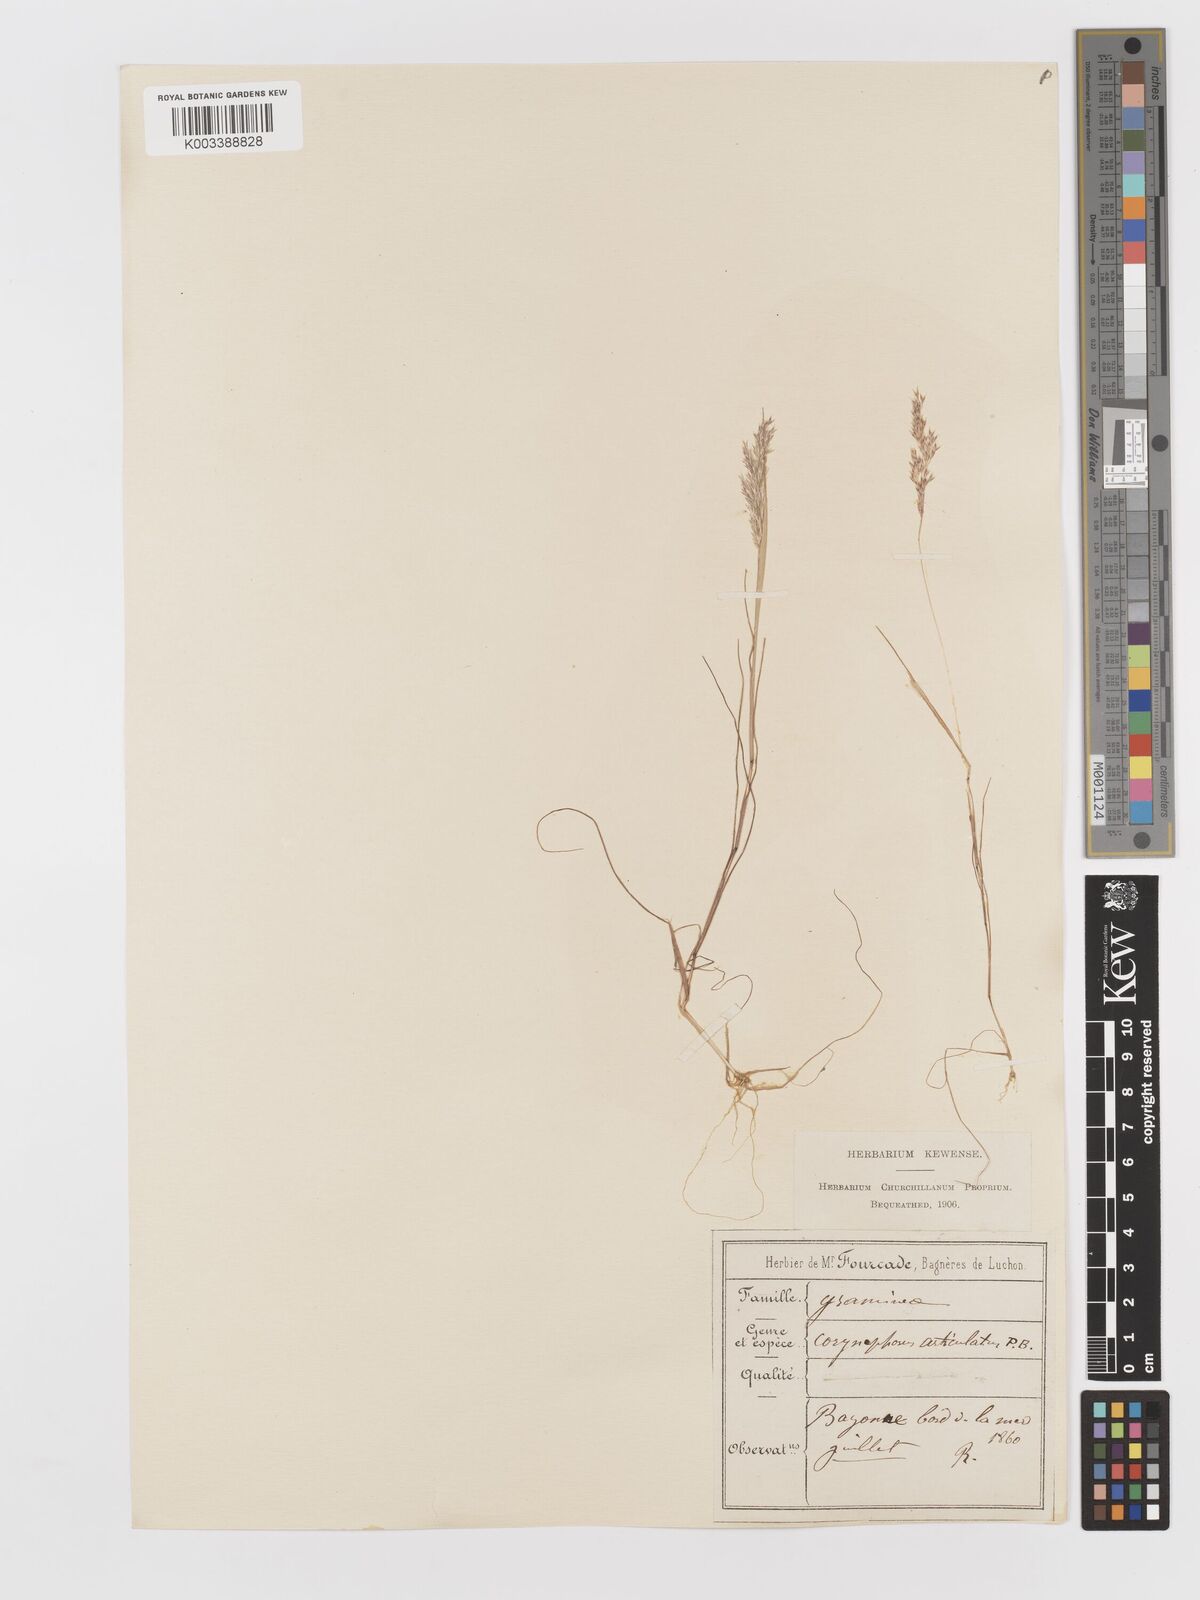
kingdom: Plantae
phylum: Tracheophyta
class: Liliopsida
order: Poales
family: Poaceae
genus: Corynephorus
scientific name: Corynephorus divaricatus
